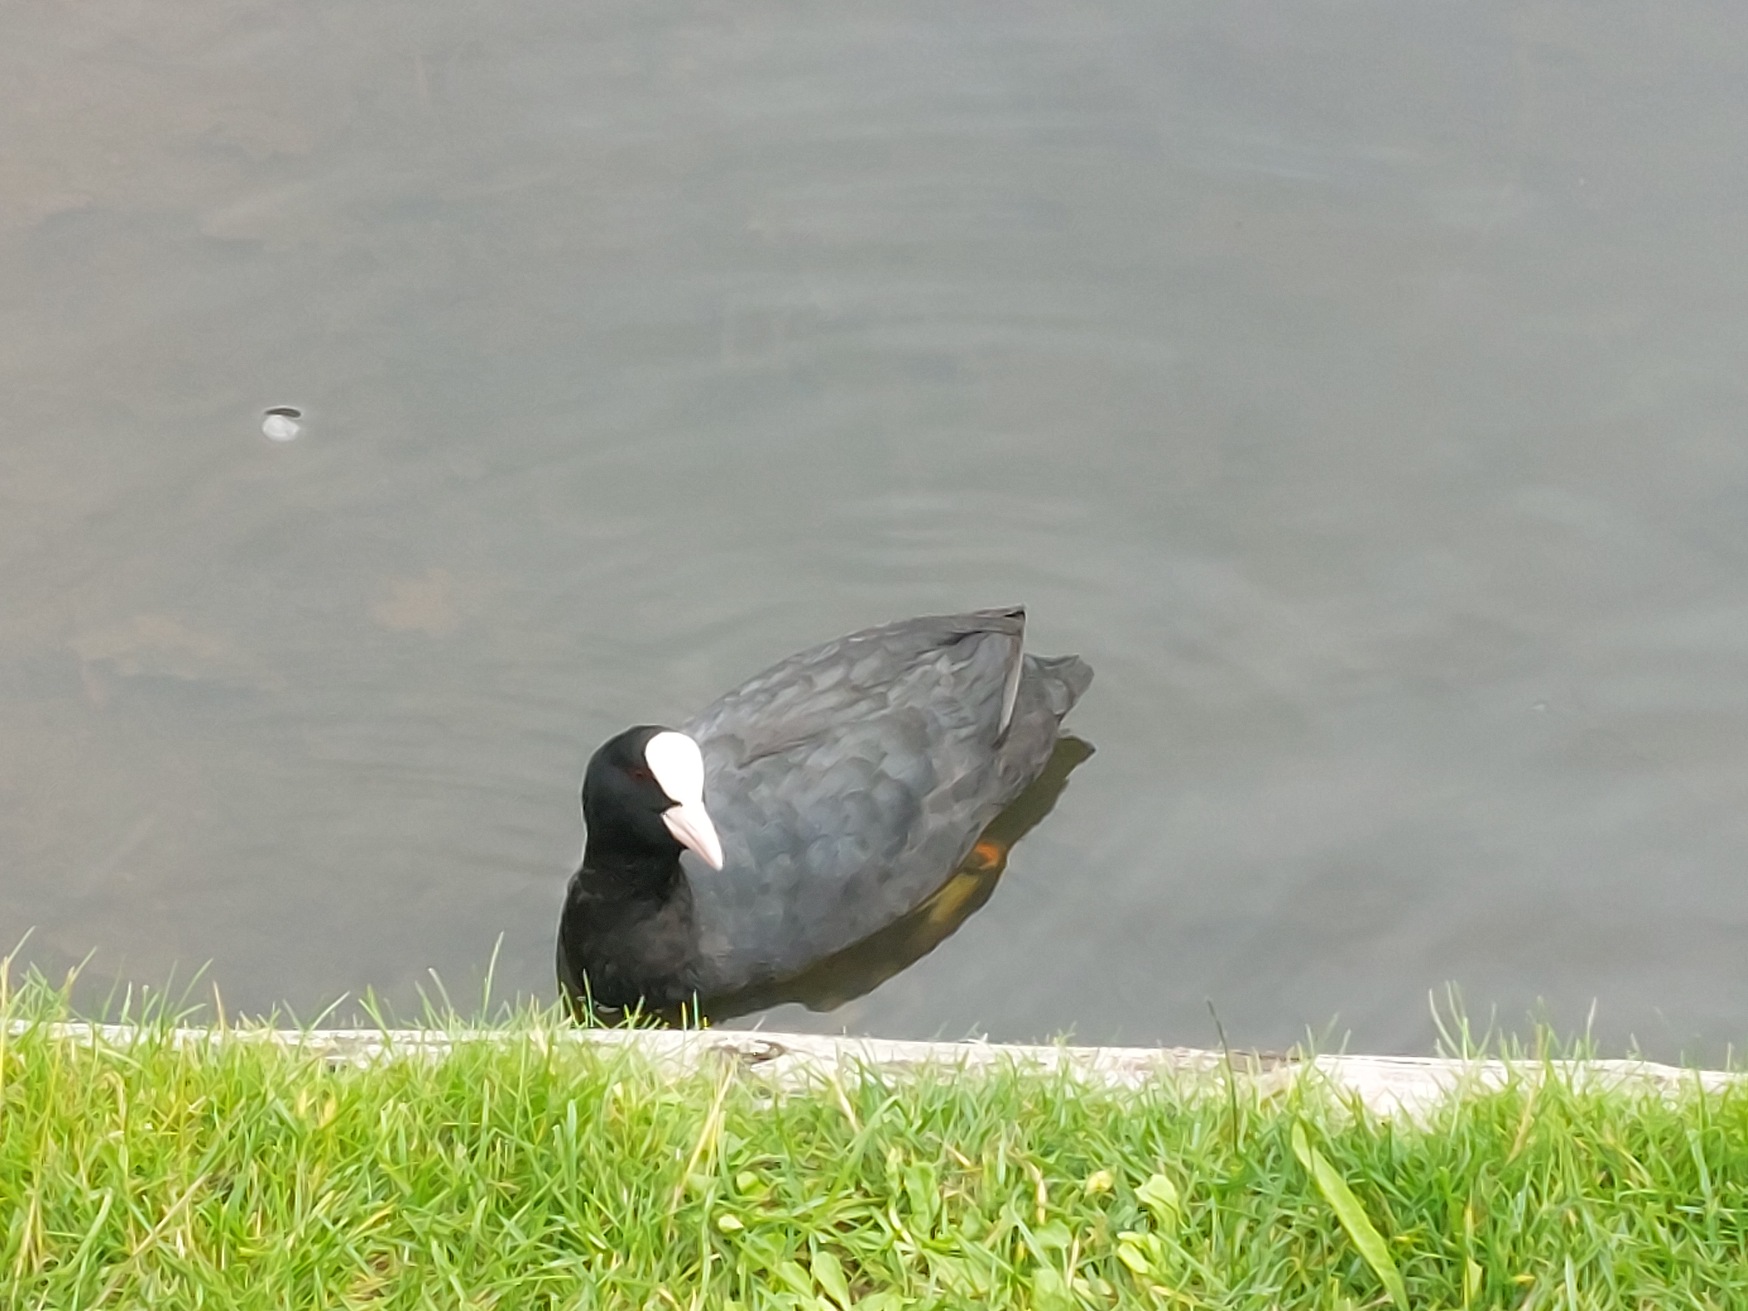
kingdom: Animalia
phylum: Chordata
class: Aves
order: Gruiformes
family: Rallidae
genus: Fulica
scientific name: Fulica atra
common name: Blishøne
